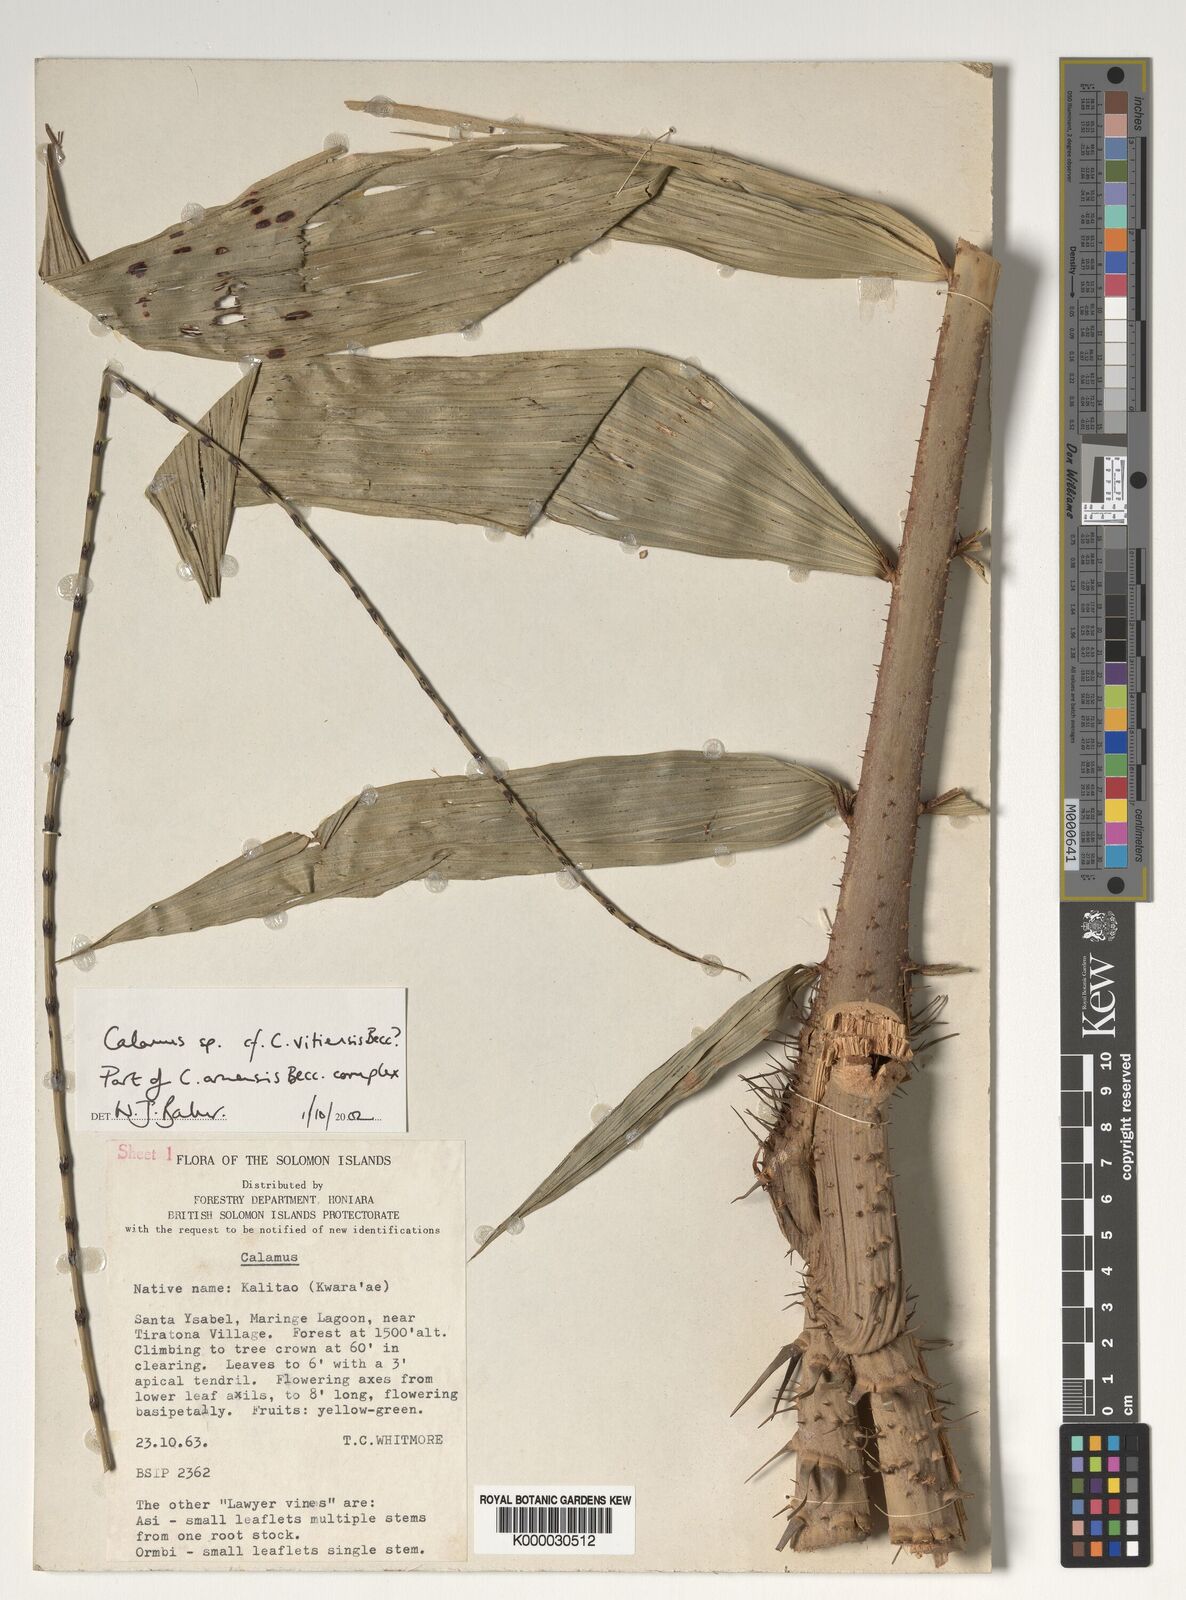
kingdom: Plantae
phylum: Tracheophyta
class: Liliopsida
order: Arecales
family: Arecaceae
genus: Calamus
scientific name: Calamus
